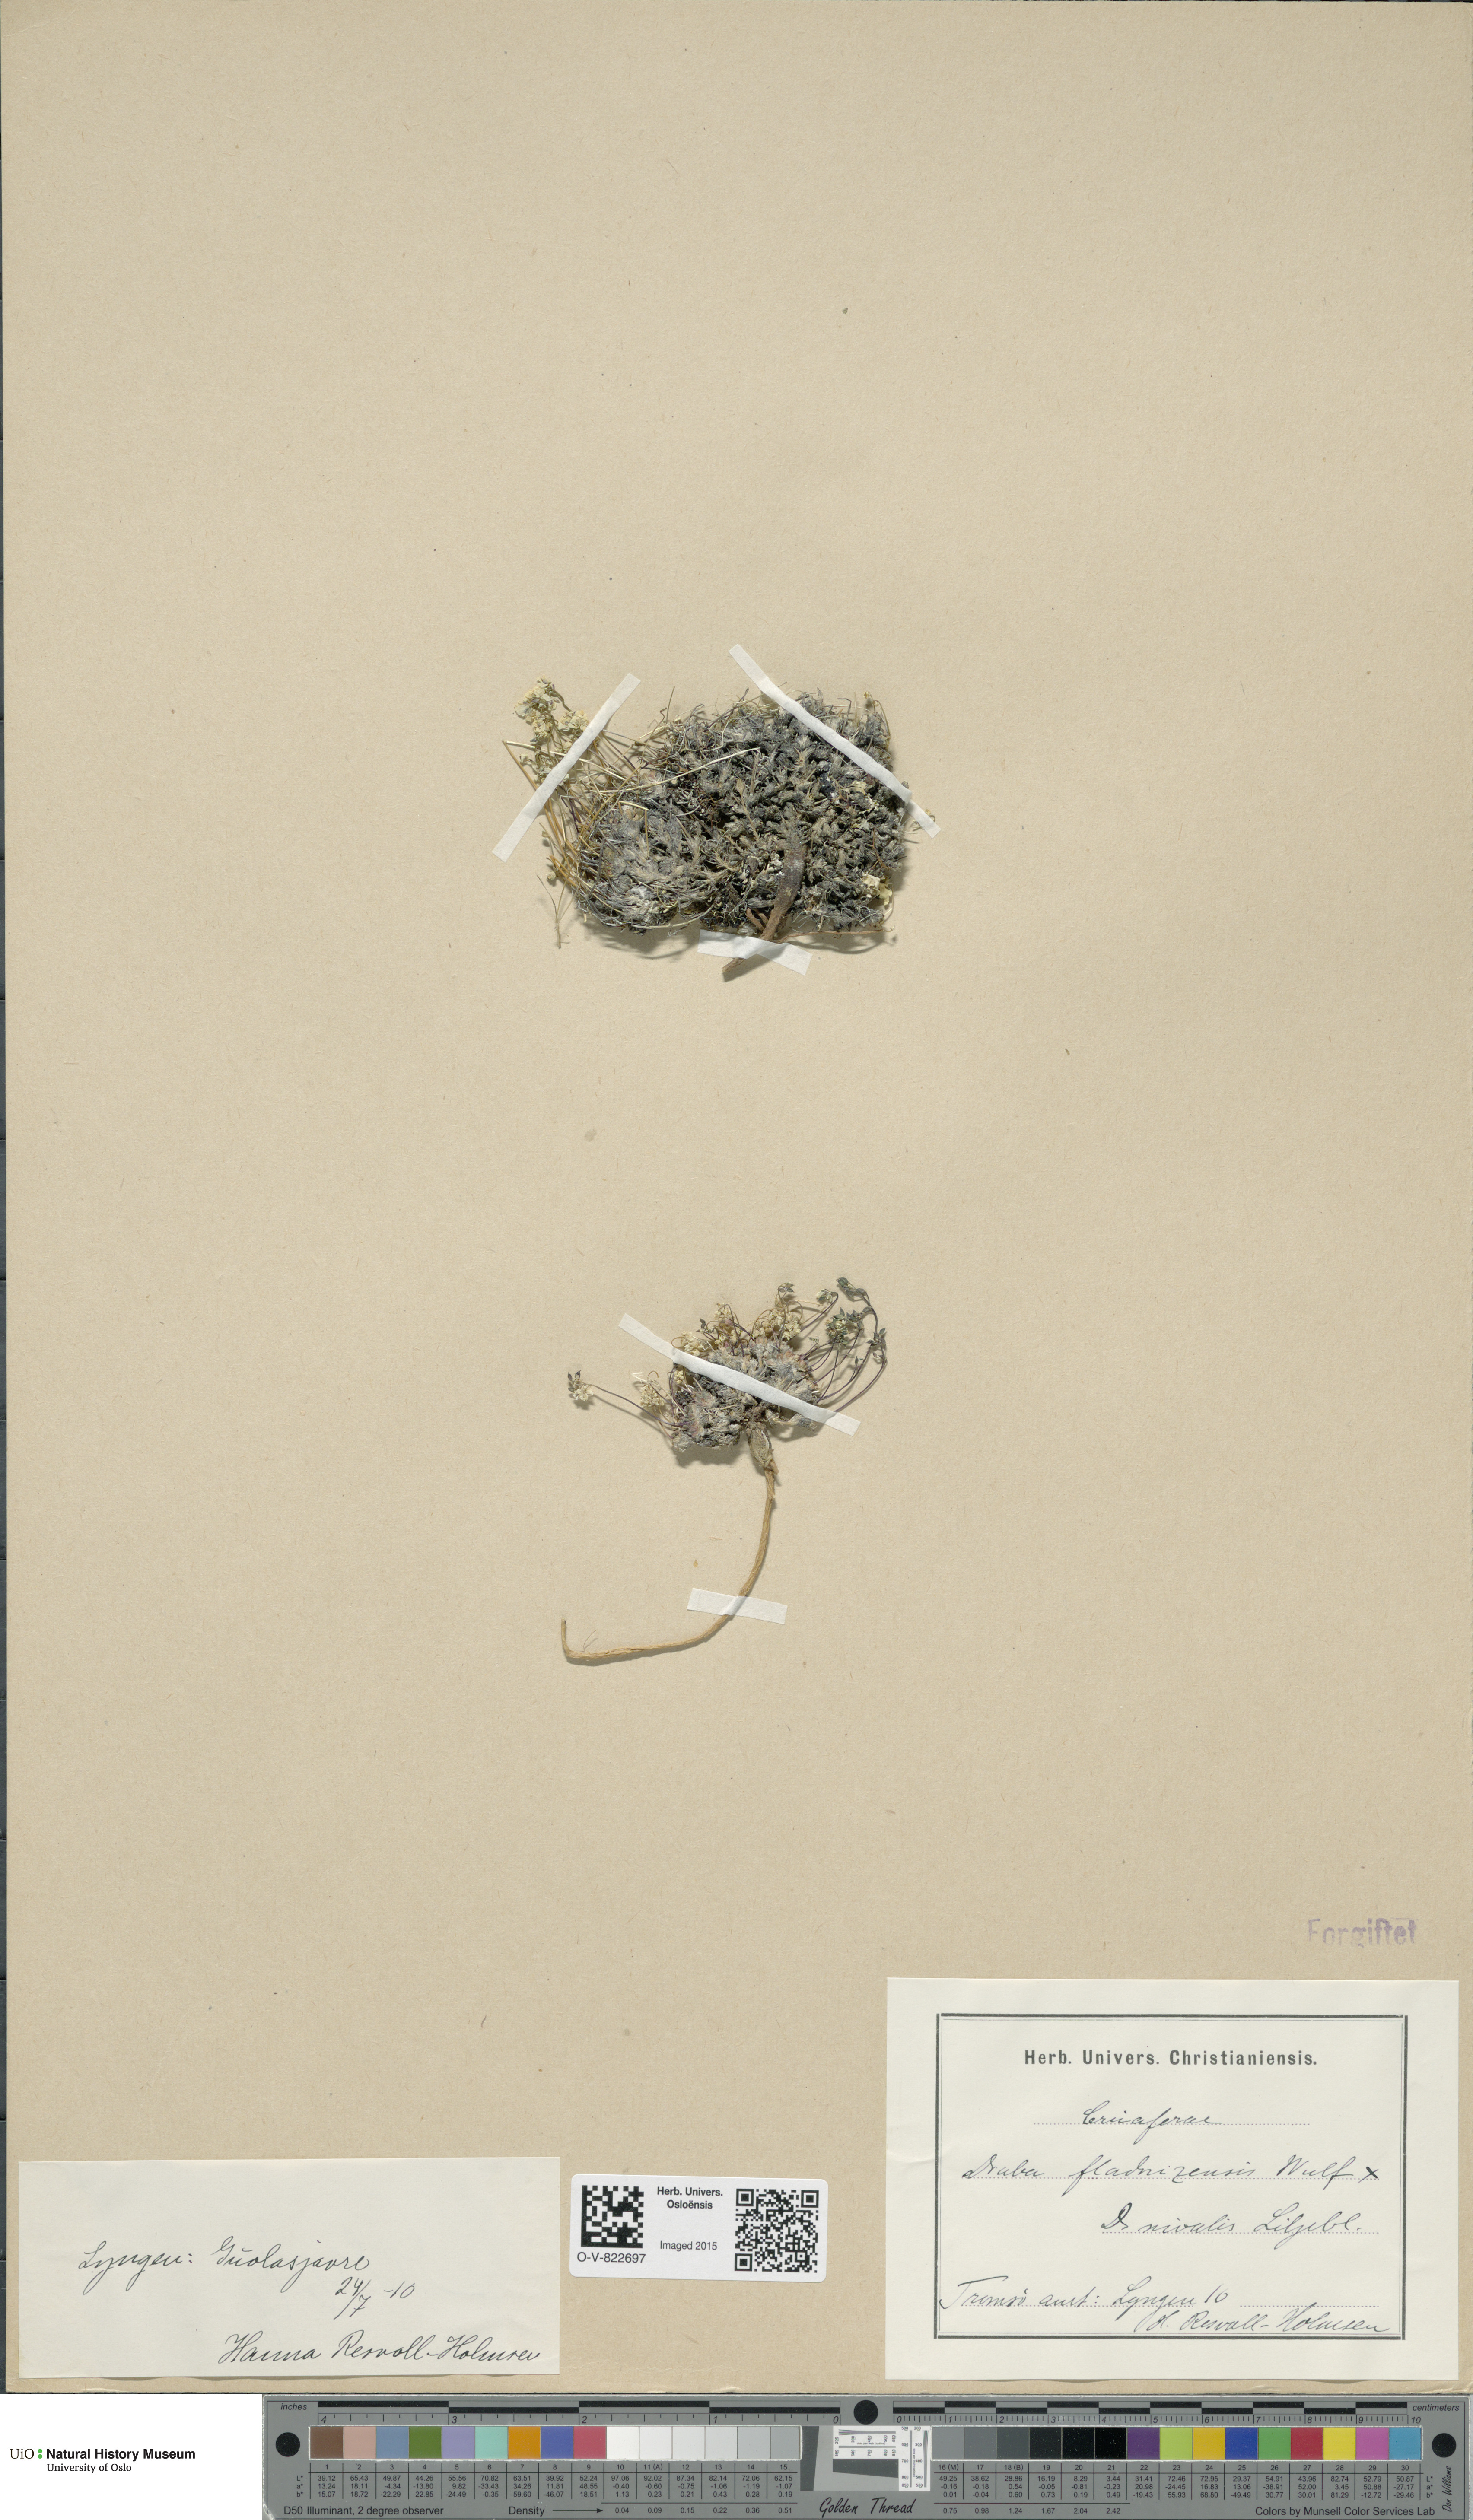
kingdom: Plantae
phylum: Tracheophyta
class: Magnoliopsida
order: Brassicales
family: Brassicaceae
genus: Draba
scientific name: Draba
